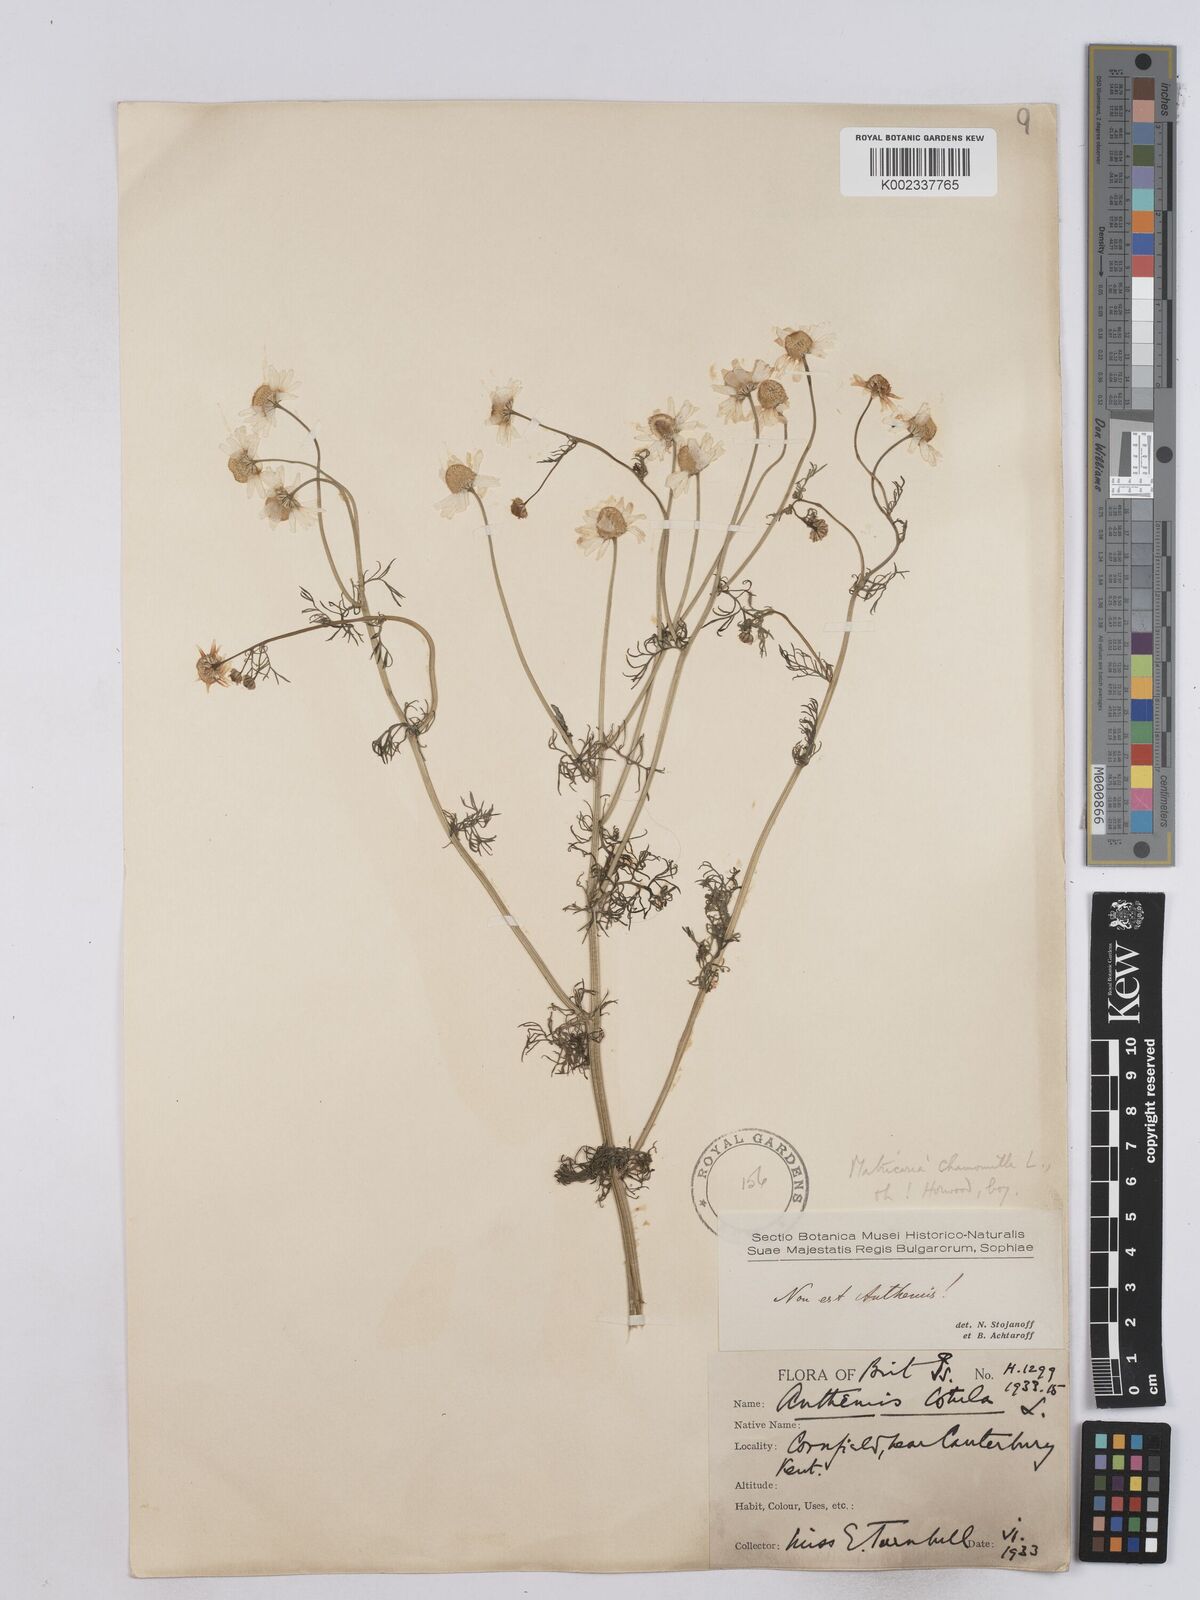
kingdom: Plantae
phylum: Tracheophyta
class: Magnoliopsida
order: Asterales
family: Asteraceae
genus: Matricaria
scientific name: Matricaria chamomilla
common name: Scented mayweed
